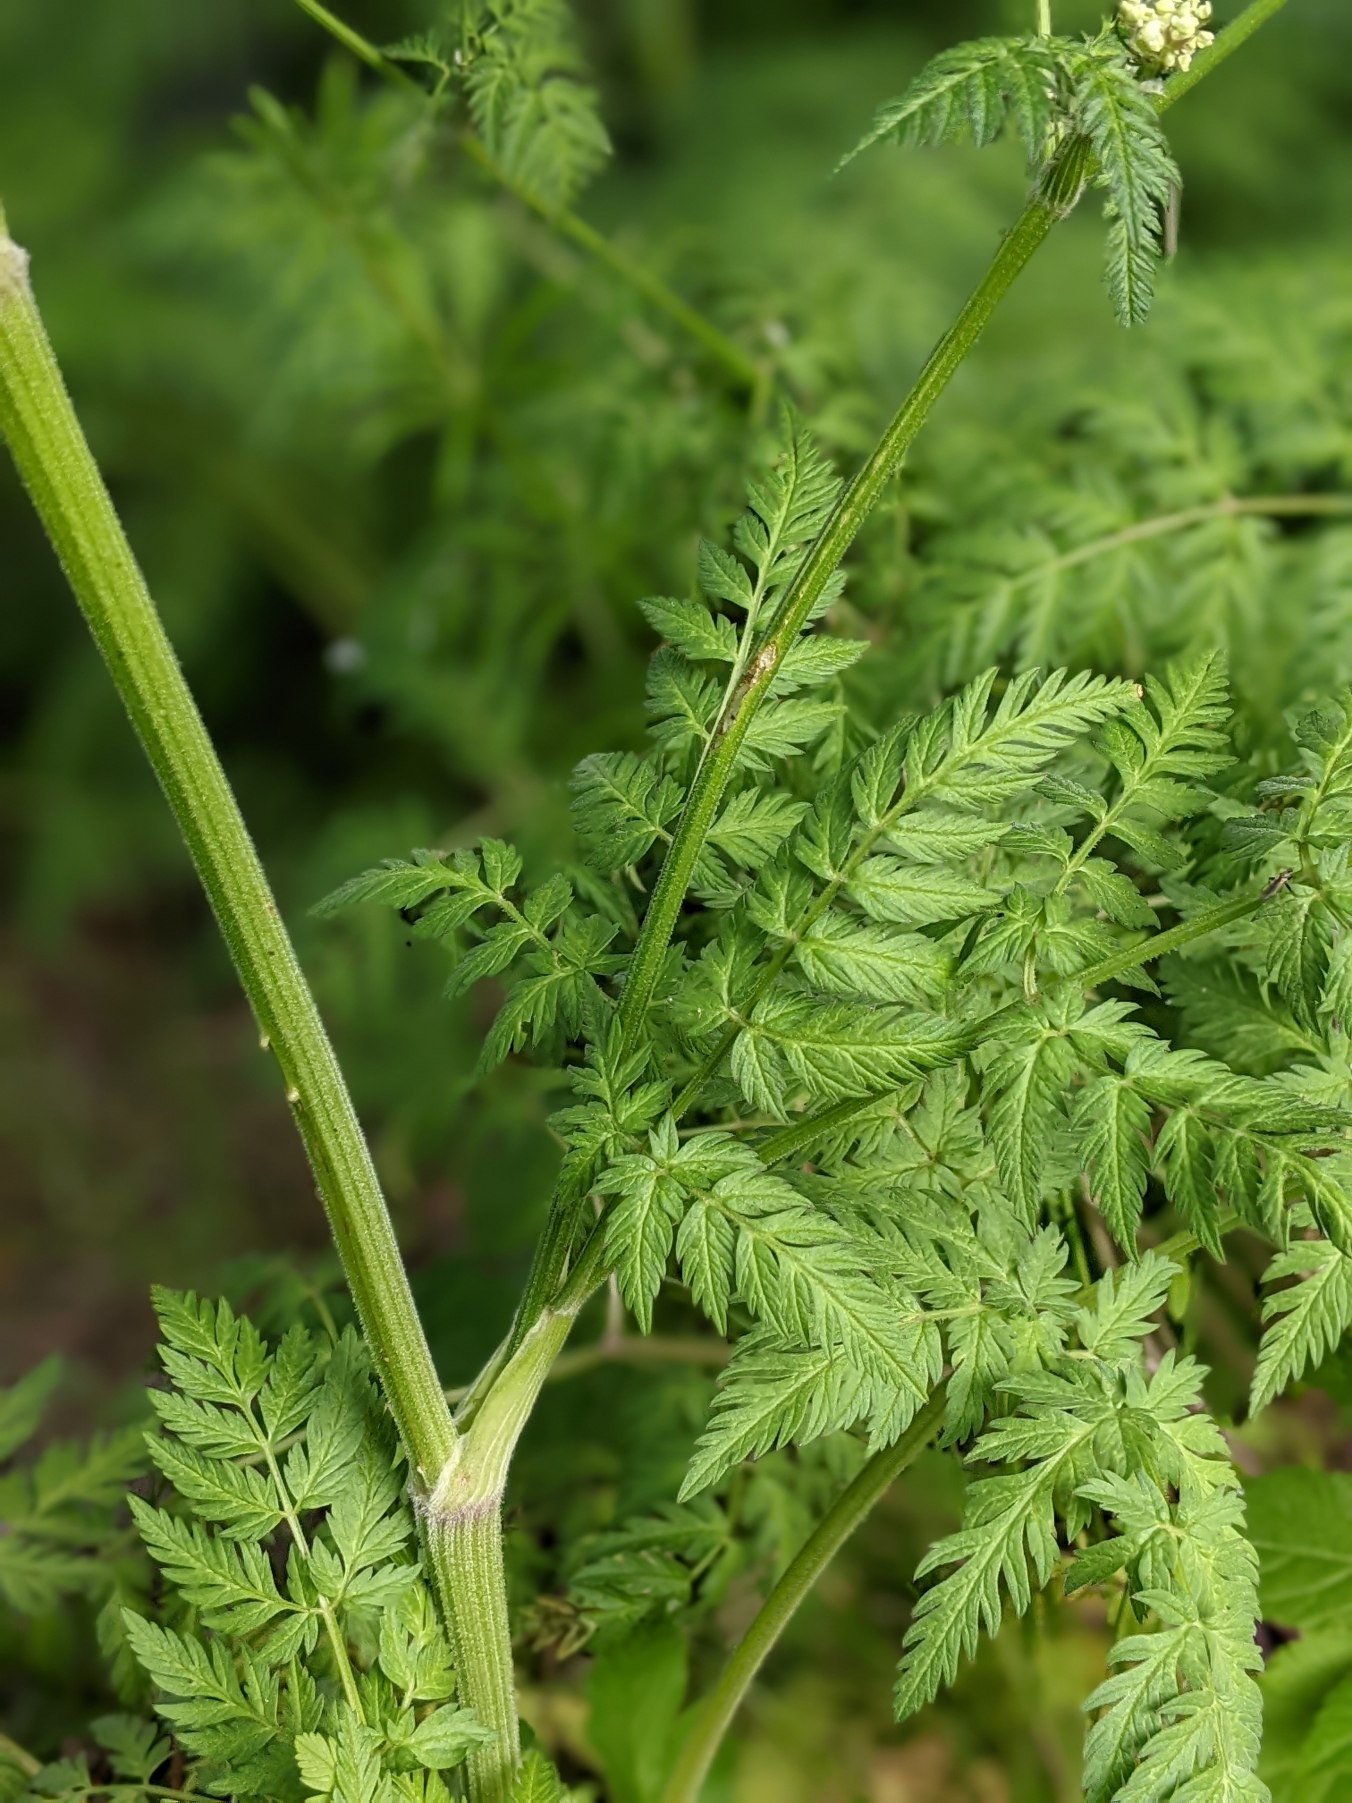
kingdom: Plantae
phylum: Tracheophyta
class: Magnoliopsida
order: Apiales
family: Apiaceae
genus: Anthriscus
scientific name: Anthriscus sylvestris
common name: Vild kørvel
